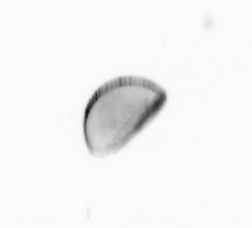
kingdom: Chromista
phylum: Ochrophyta
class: Bacillariophyceae
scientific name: Bacillariophyceae
